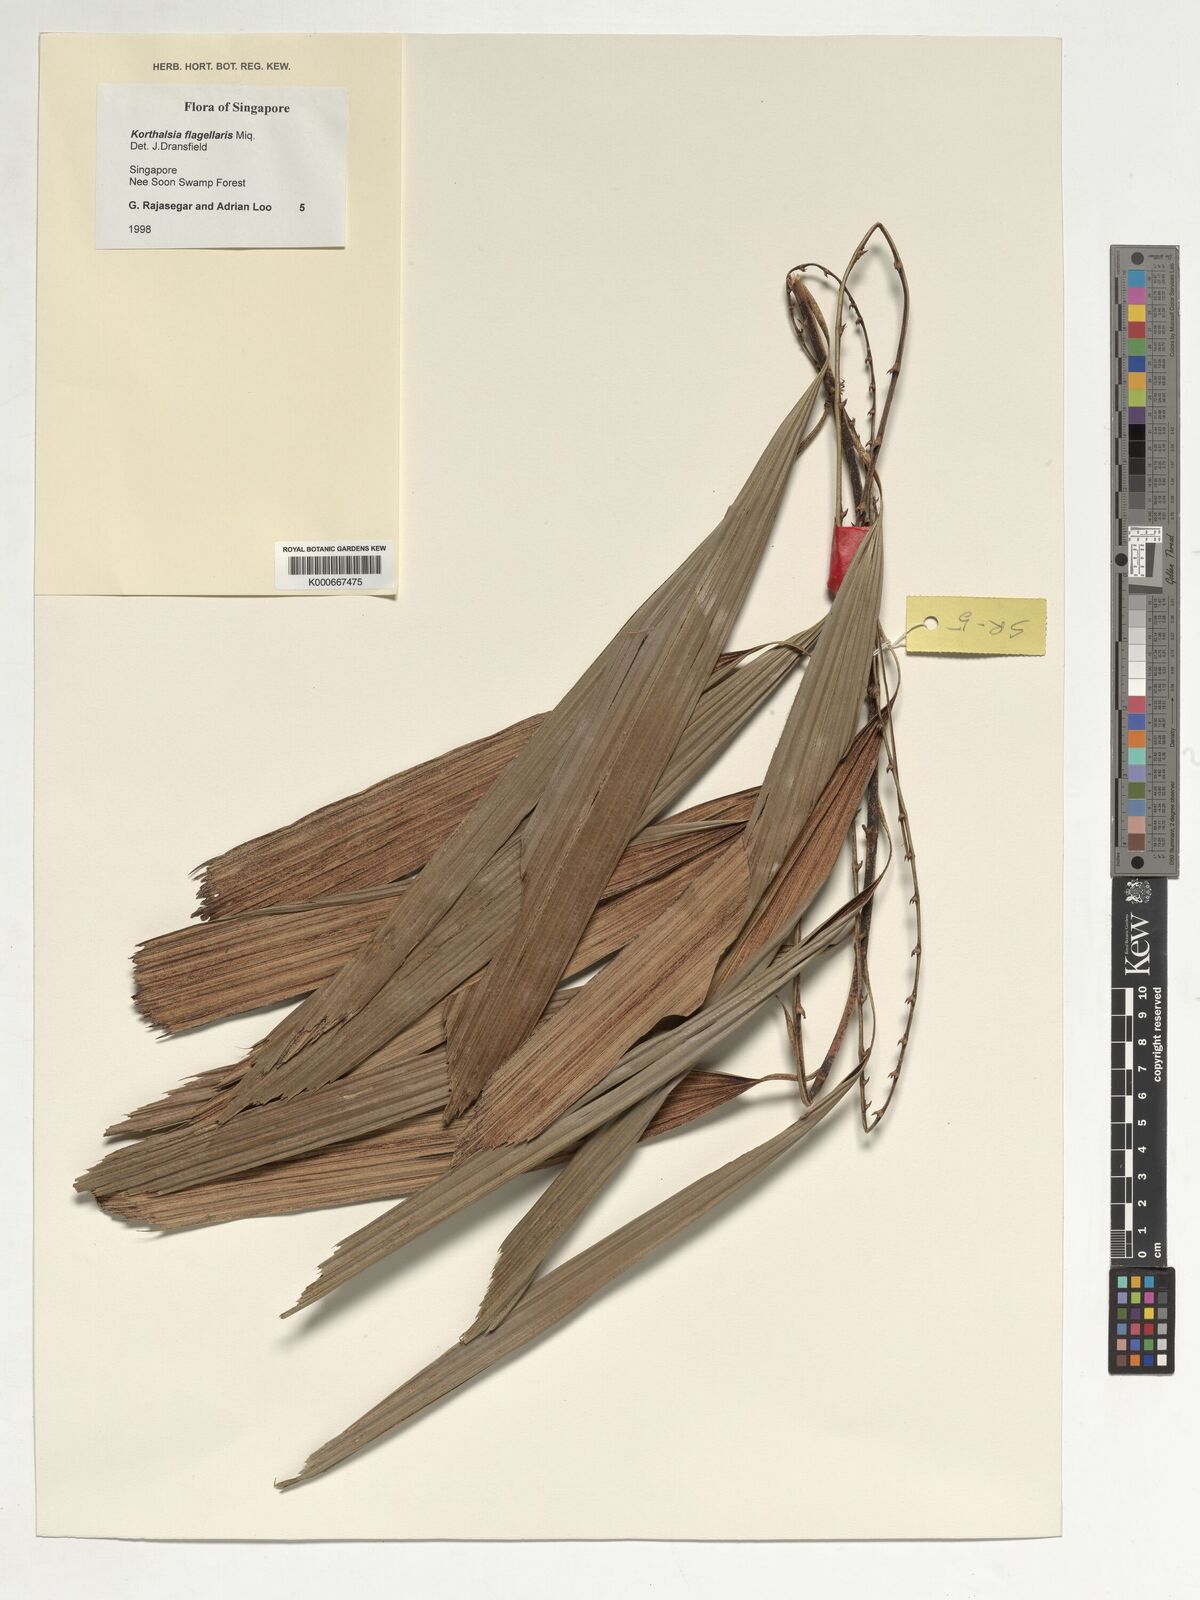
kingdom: Plantae
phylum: Tracheophyta
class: Liliopsida
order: Arecales
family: Arecaceae
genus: Korthalsia
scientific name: Korthalsia flagellaris
